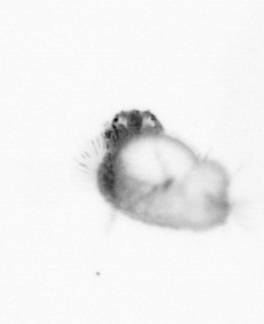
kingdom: Animalia
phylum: Arthropoda
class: Maxillopoda
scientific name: Maxillopoda
